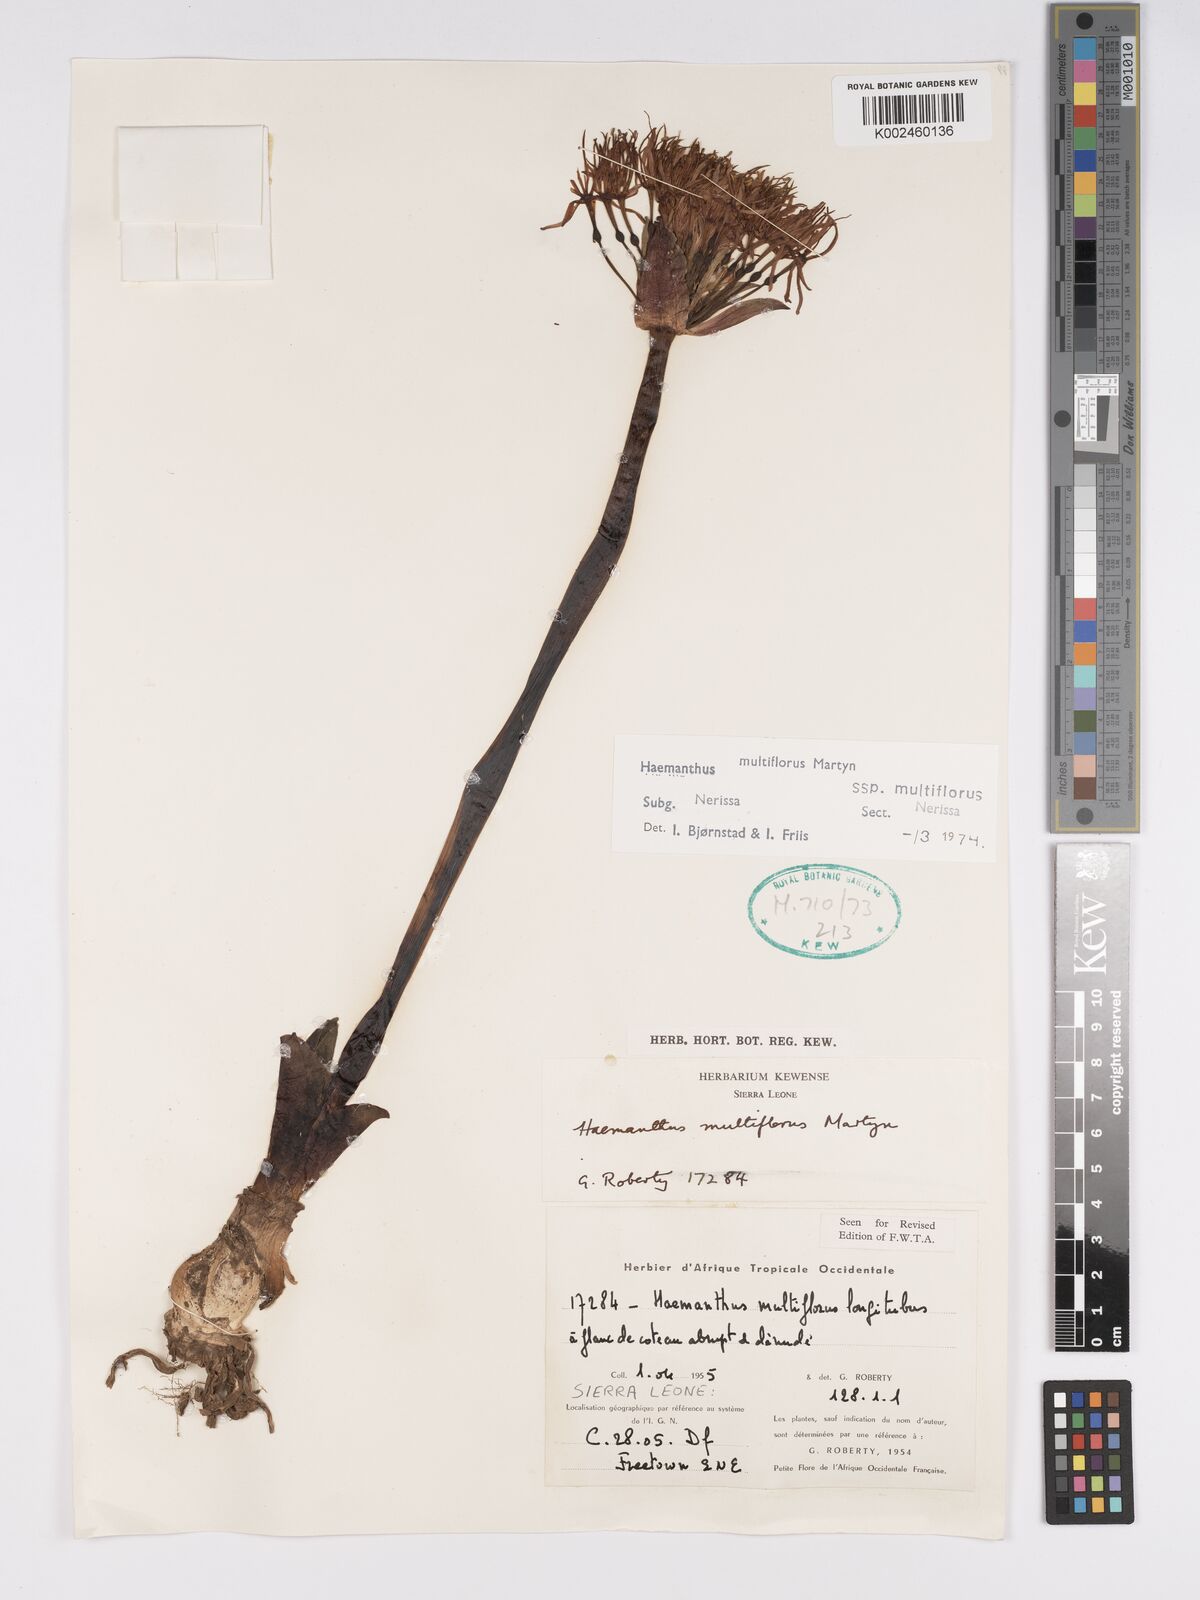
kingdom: Plantae
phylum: Tracheophyta
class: Liliopsida
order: Asparagales
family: Amaryllidaceae
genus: Scadoxus
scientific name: Scadoxus multiflorus
